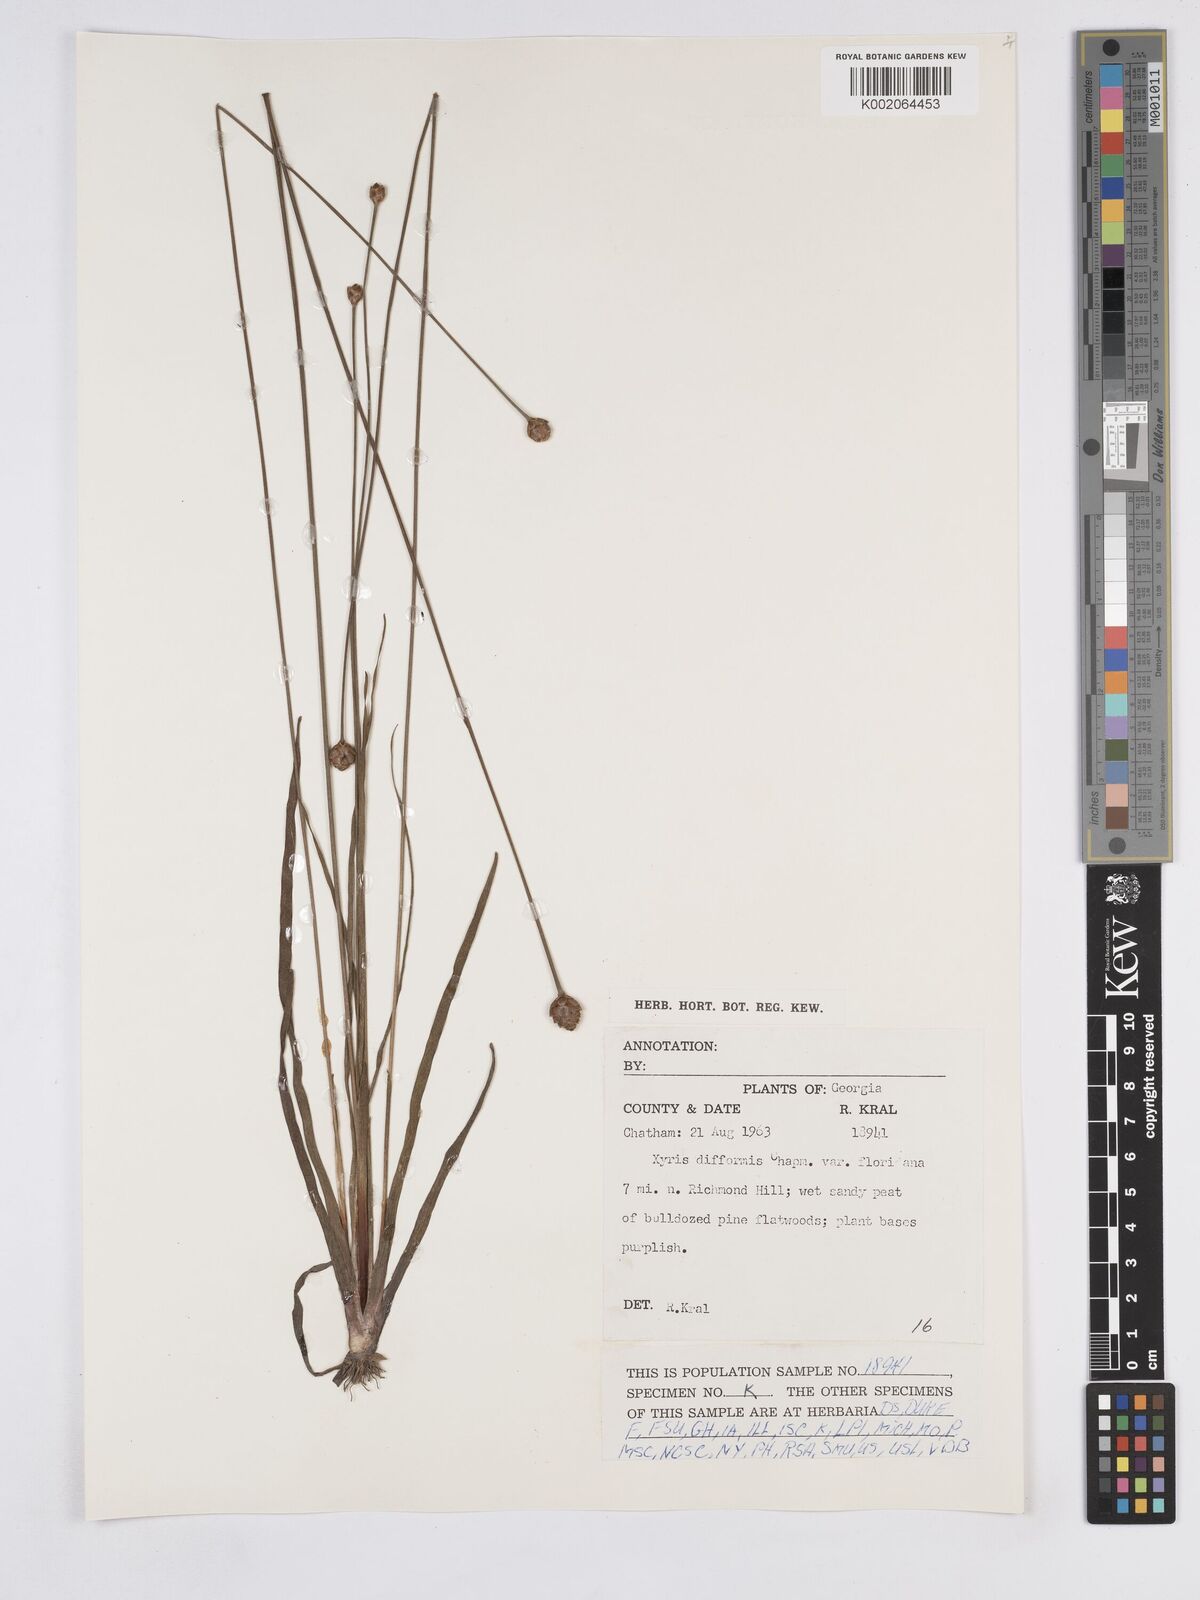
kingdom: Plantae
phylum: Tracheophyta
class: Liliopsida
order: Poales
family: Xyridaceae
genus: Xyris
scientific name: Xyris floridana
